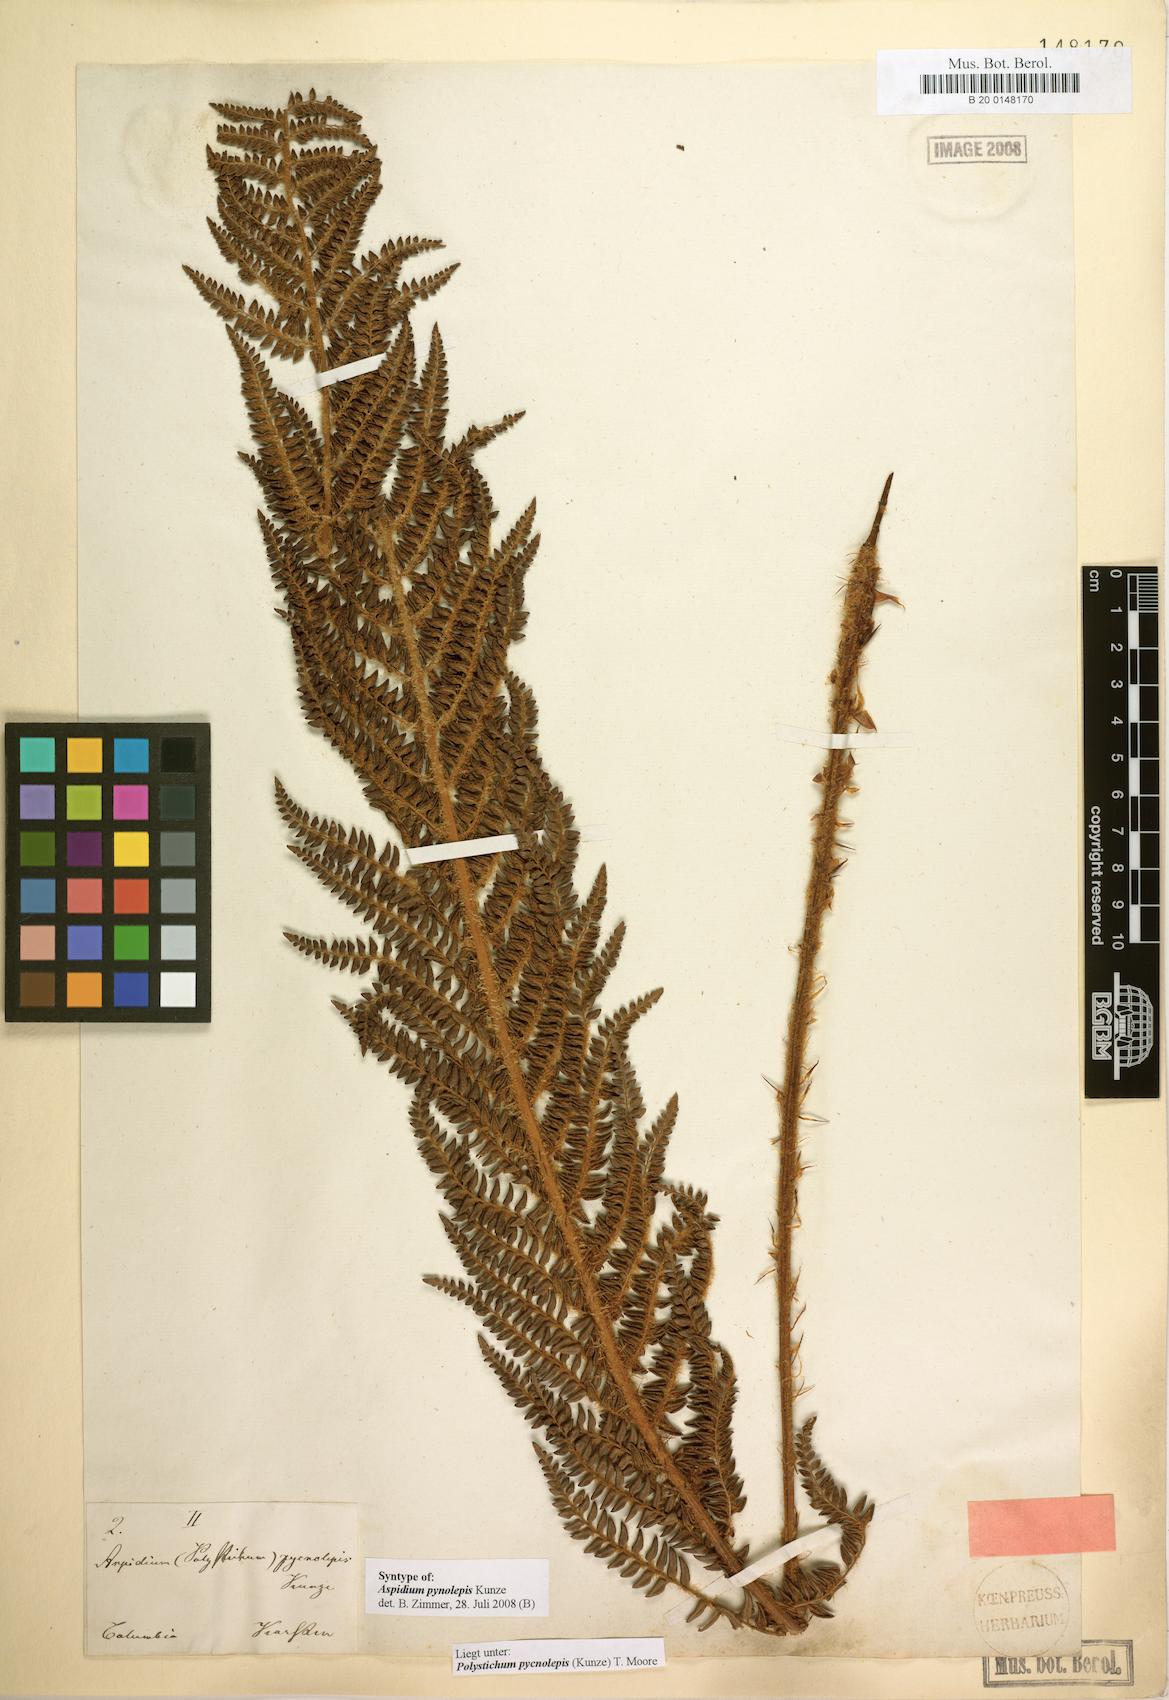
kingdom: Plantae
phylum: Tracheophyta
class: Polypodiopsida
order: Polypodiales
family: Dryopteridaceae
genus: Polystichum
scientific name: Polystichum pycnolepis
